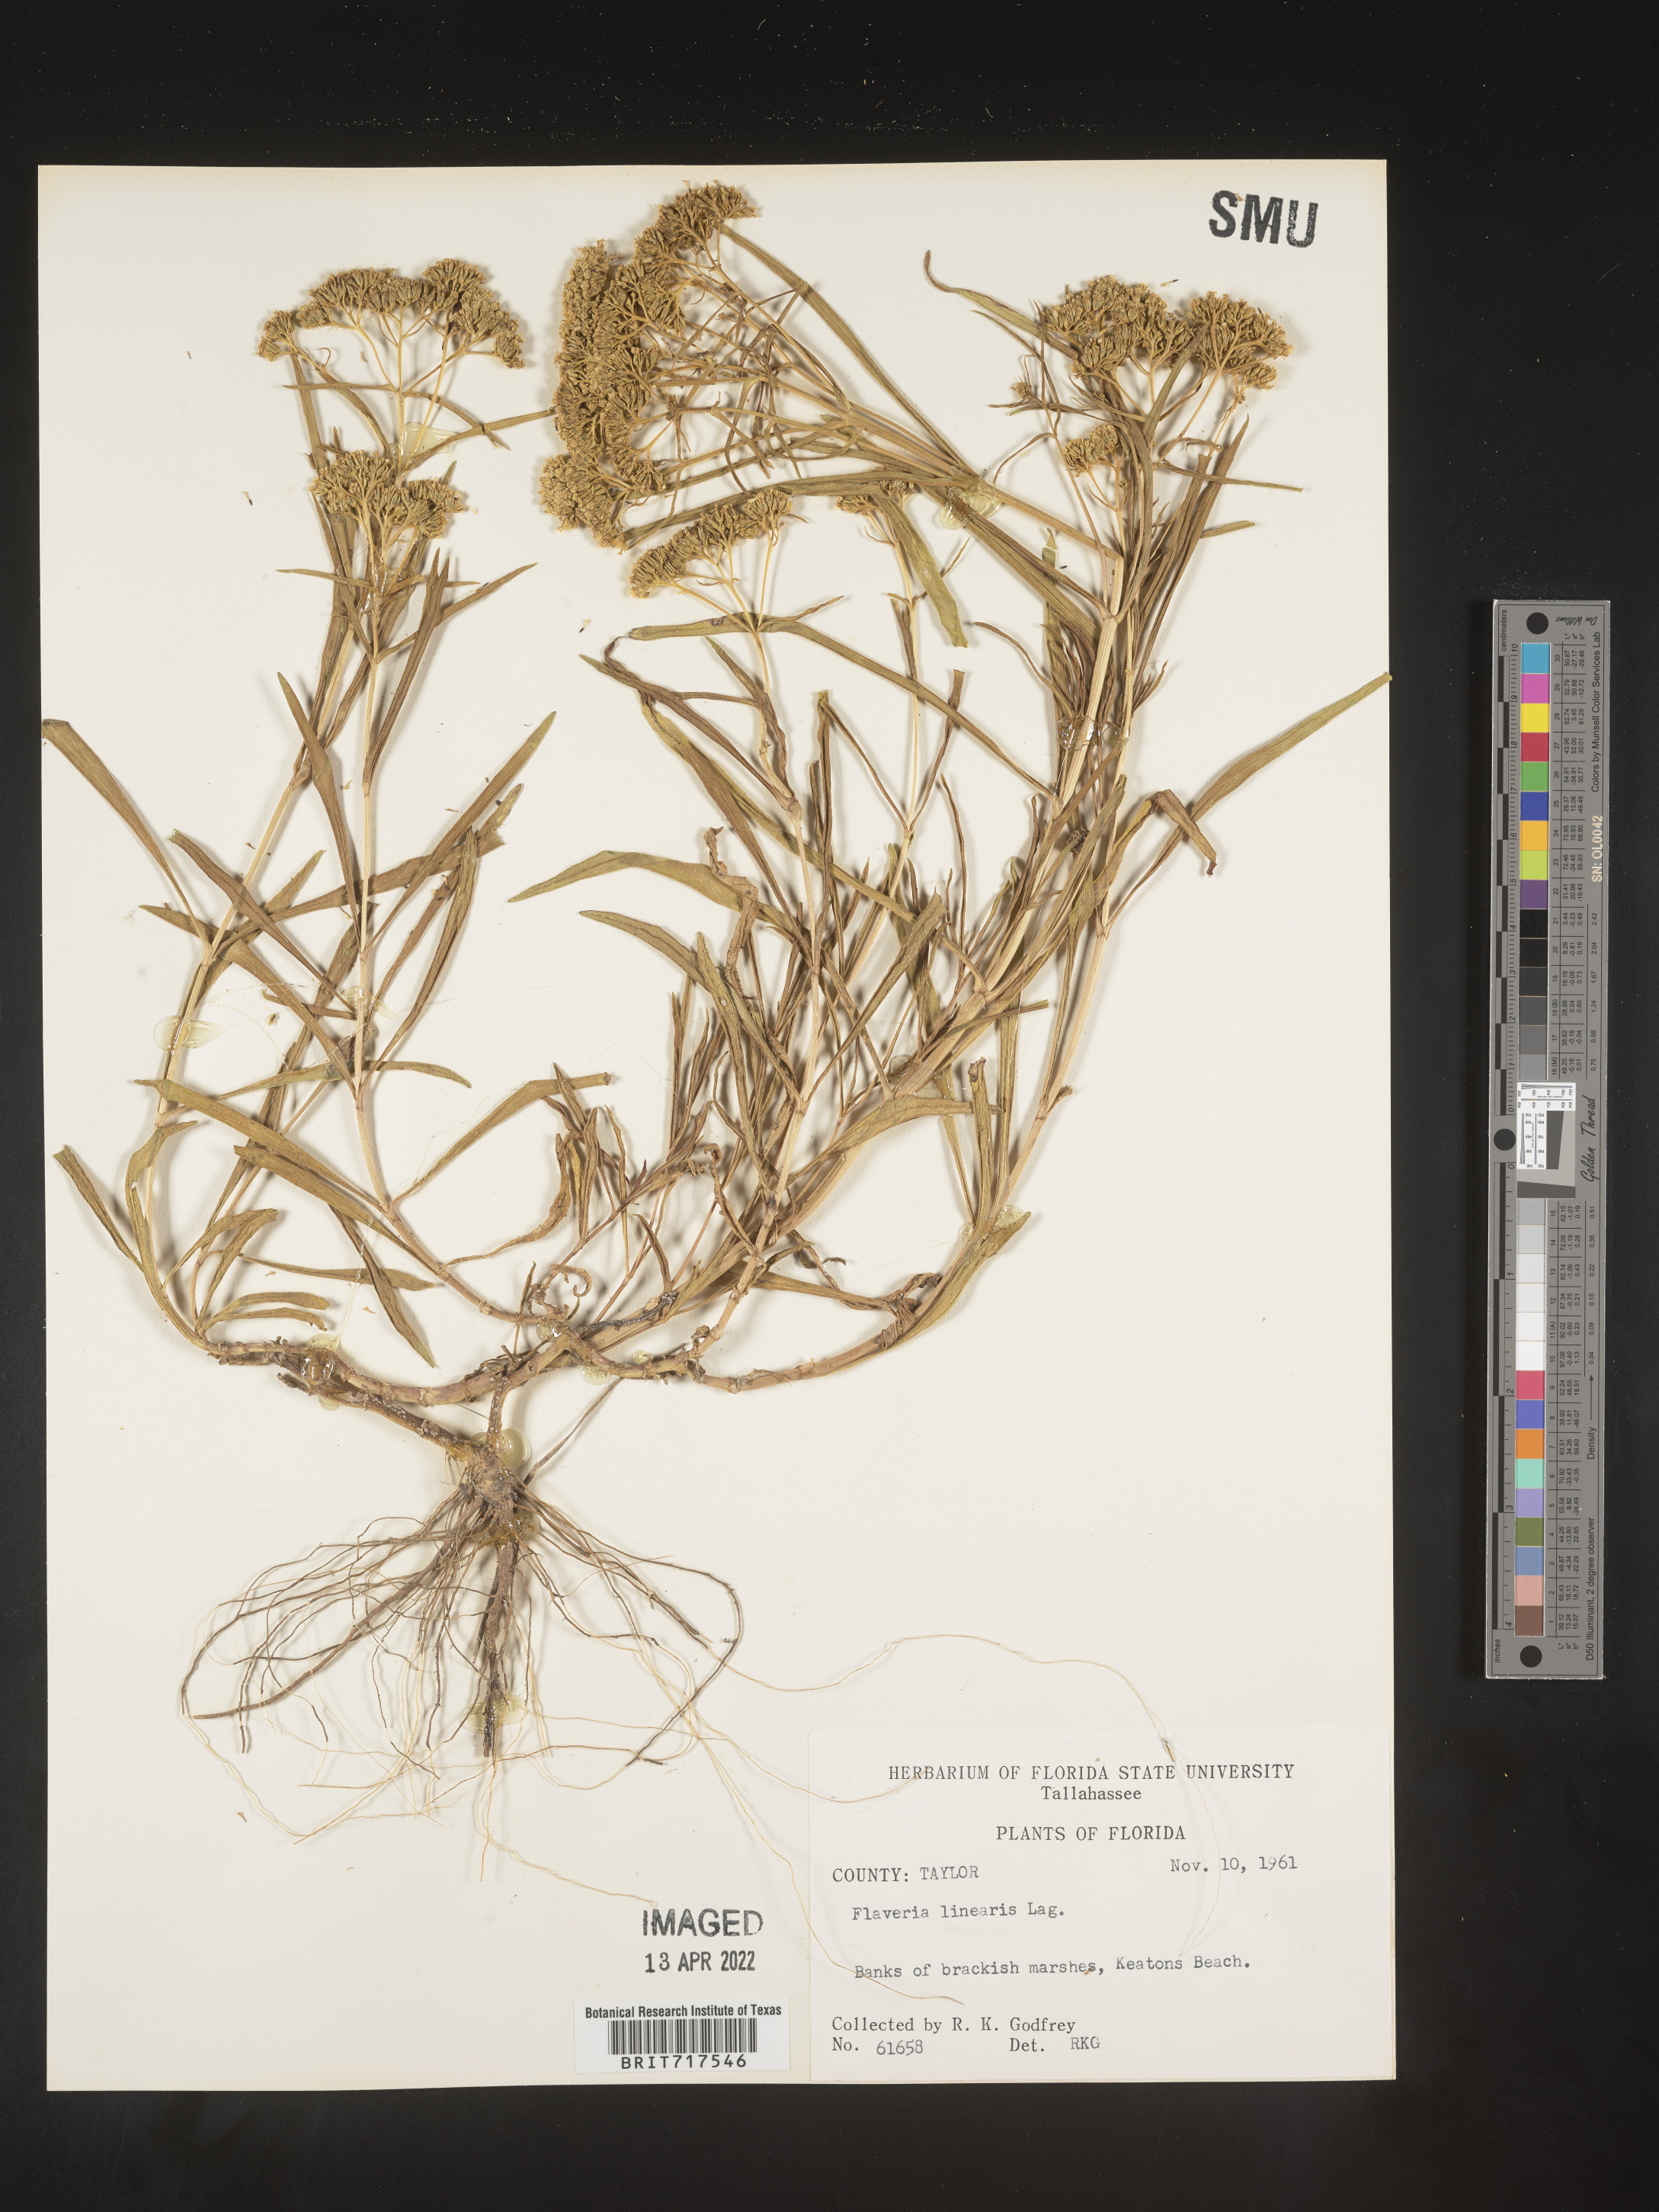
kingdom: Plantae
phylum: Tracheophyta
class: Magnoliopsida
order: Asterales
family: Asteraceae
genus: Flaveria
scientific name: Flaveria linearis
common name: Yellowtop
